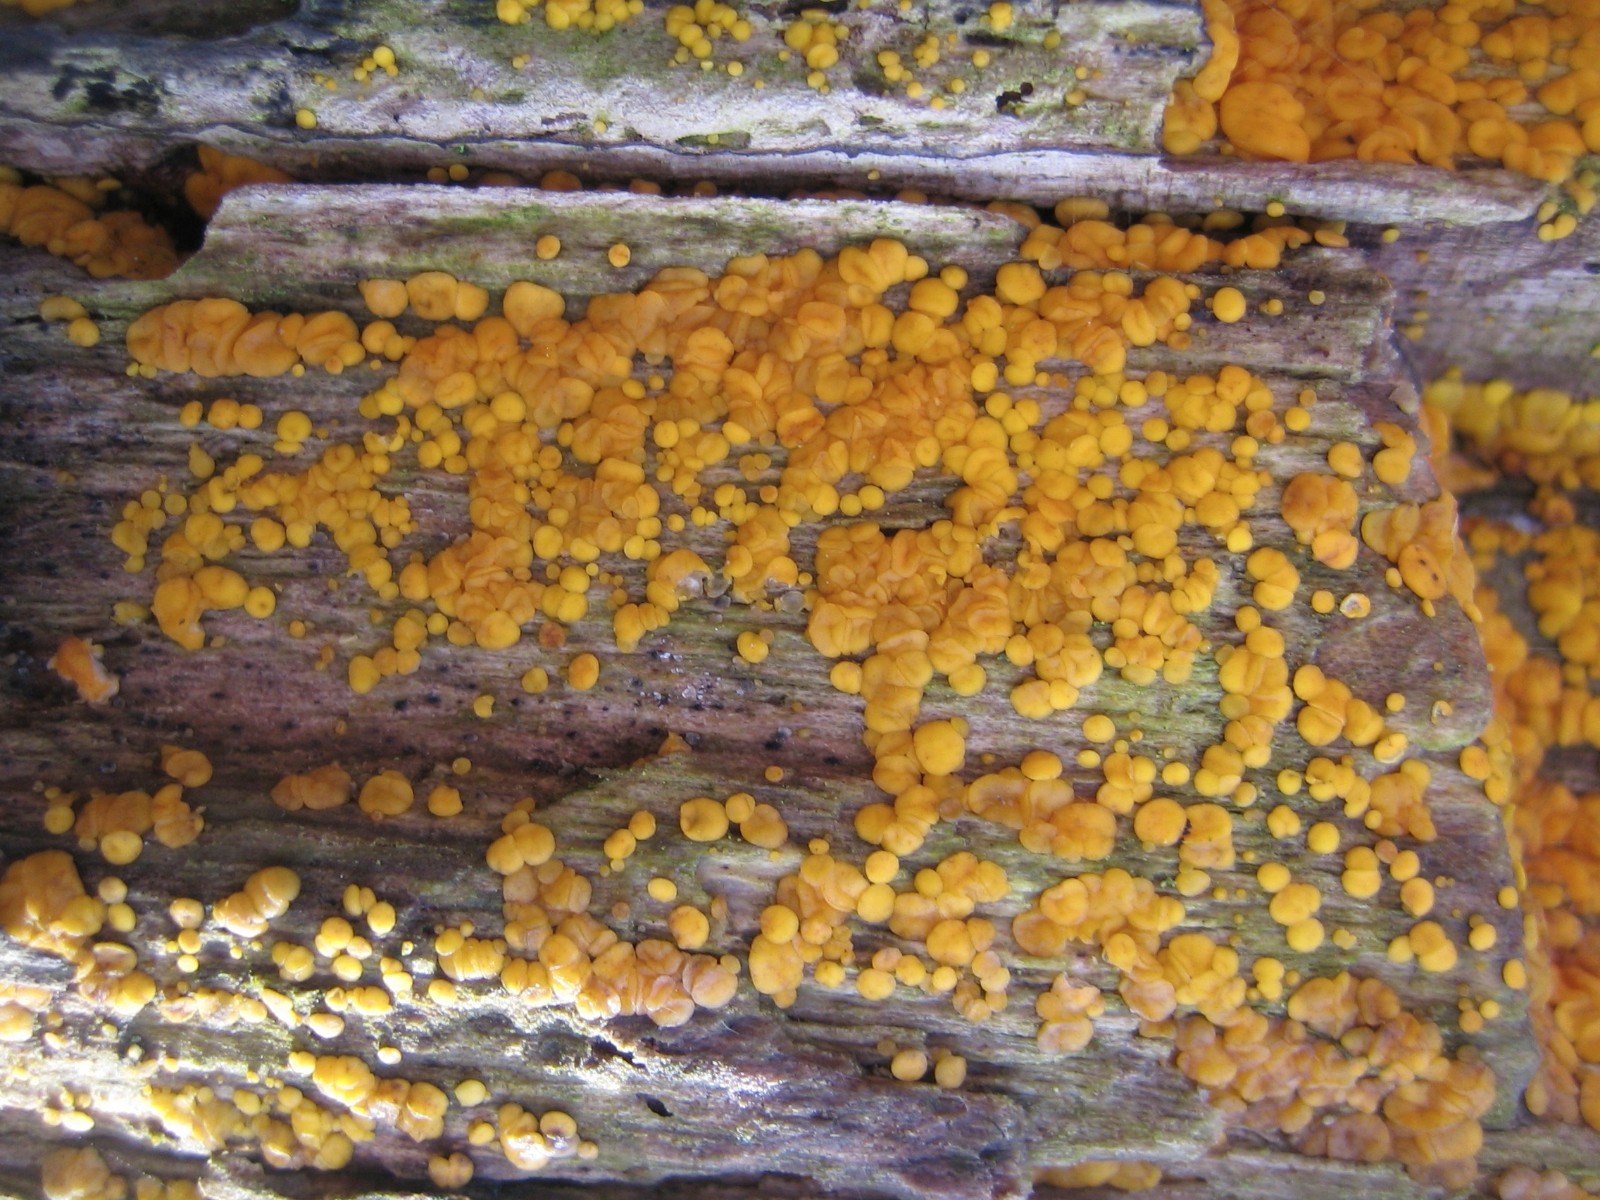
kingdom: Fungi
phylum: Ascomycota
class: Leotiomycetes
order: Helotiales
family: Pezizellaceae
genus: Calycina
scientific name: Calycina
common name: gulskive
